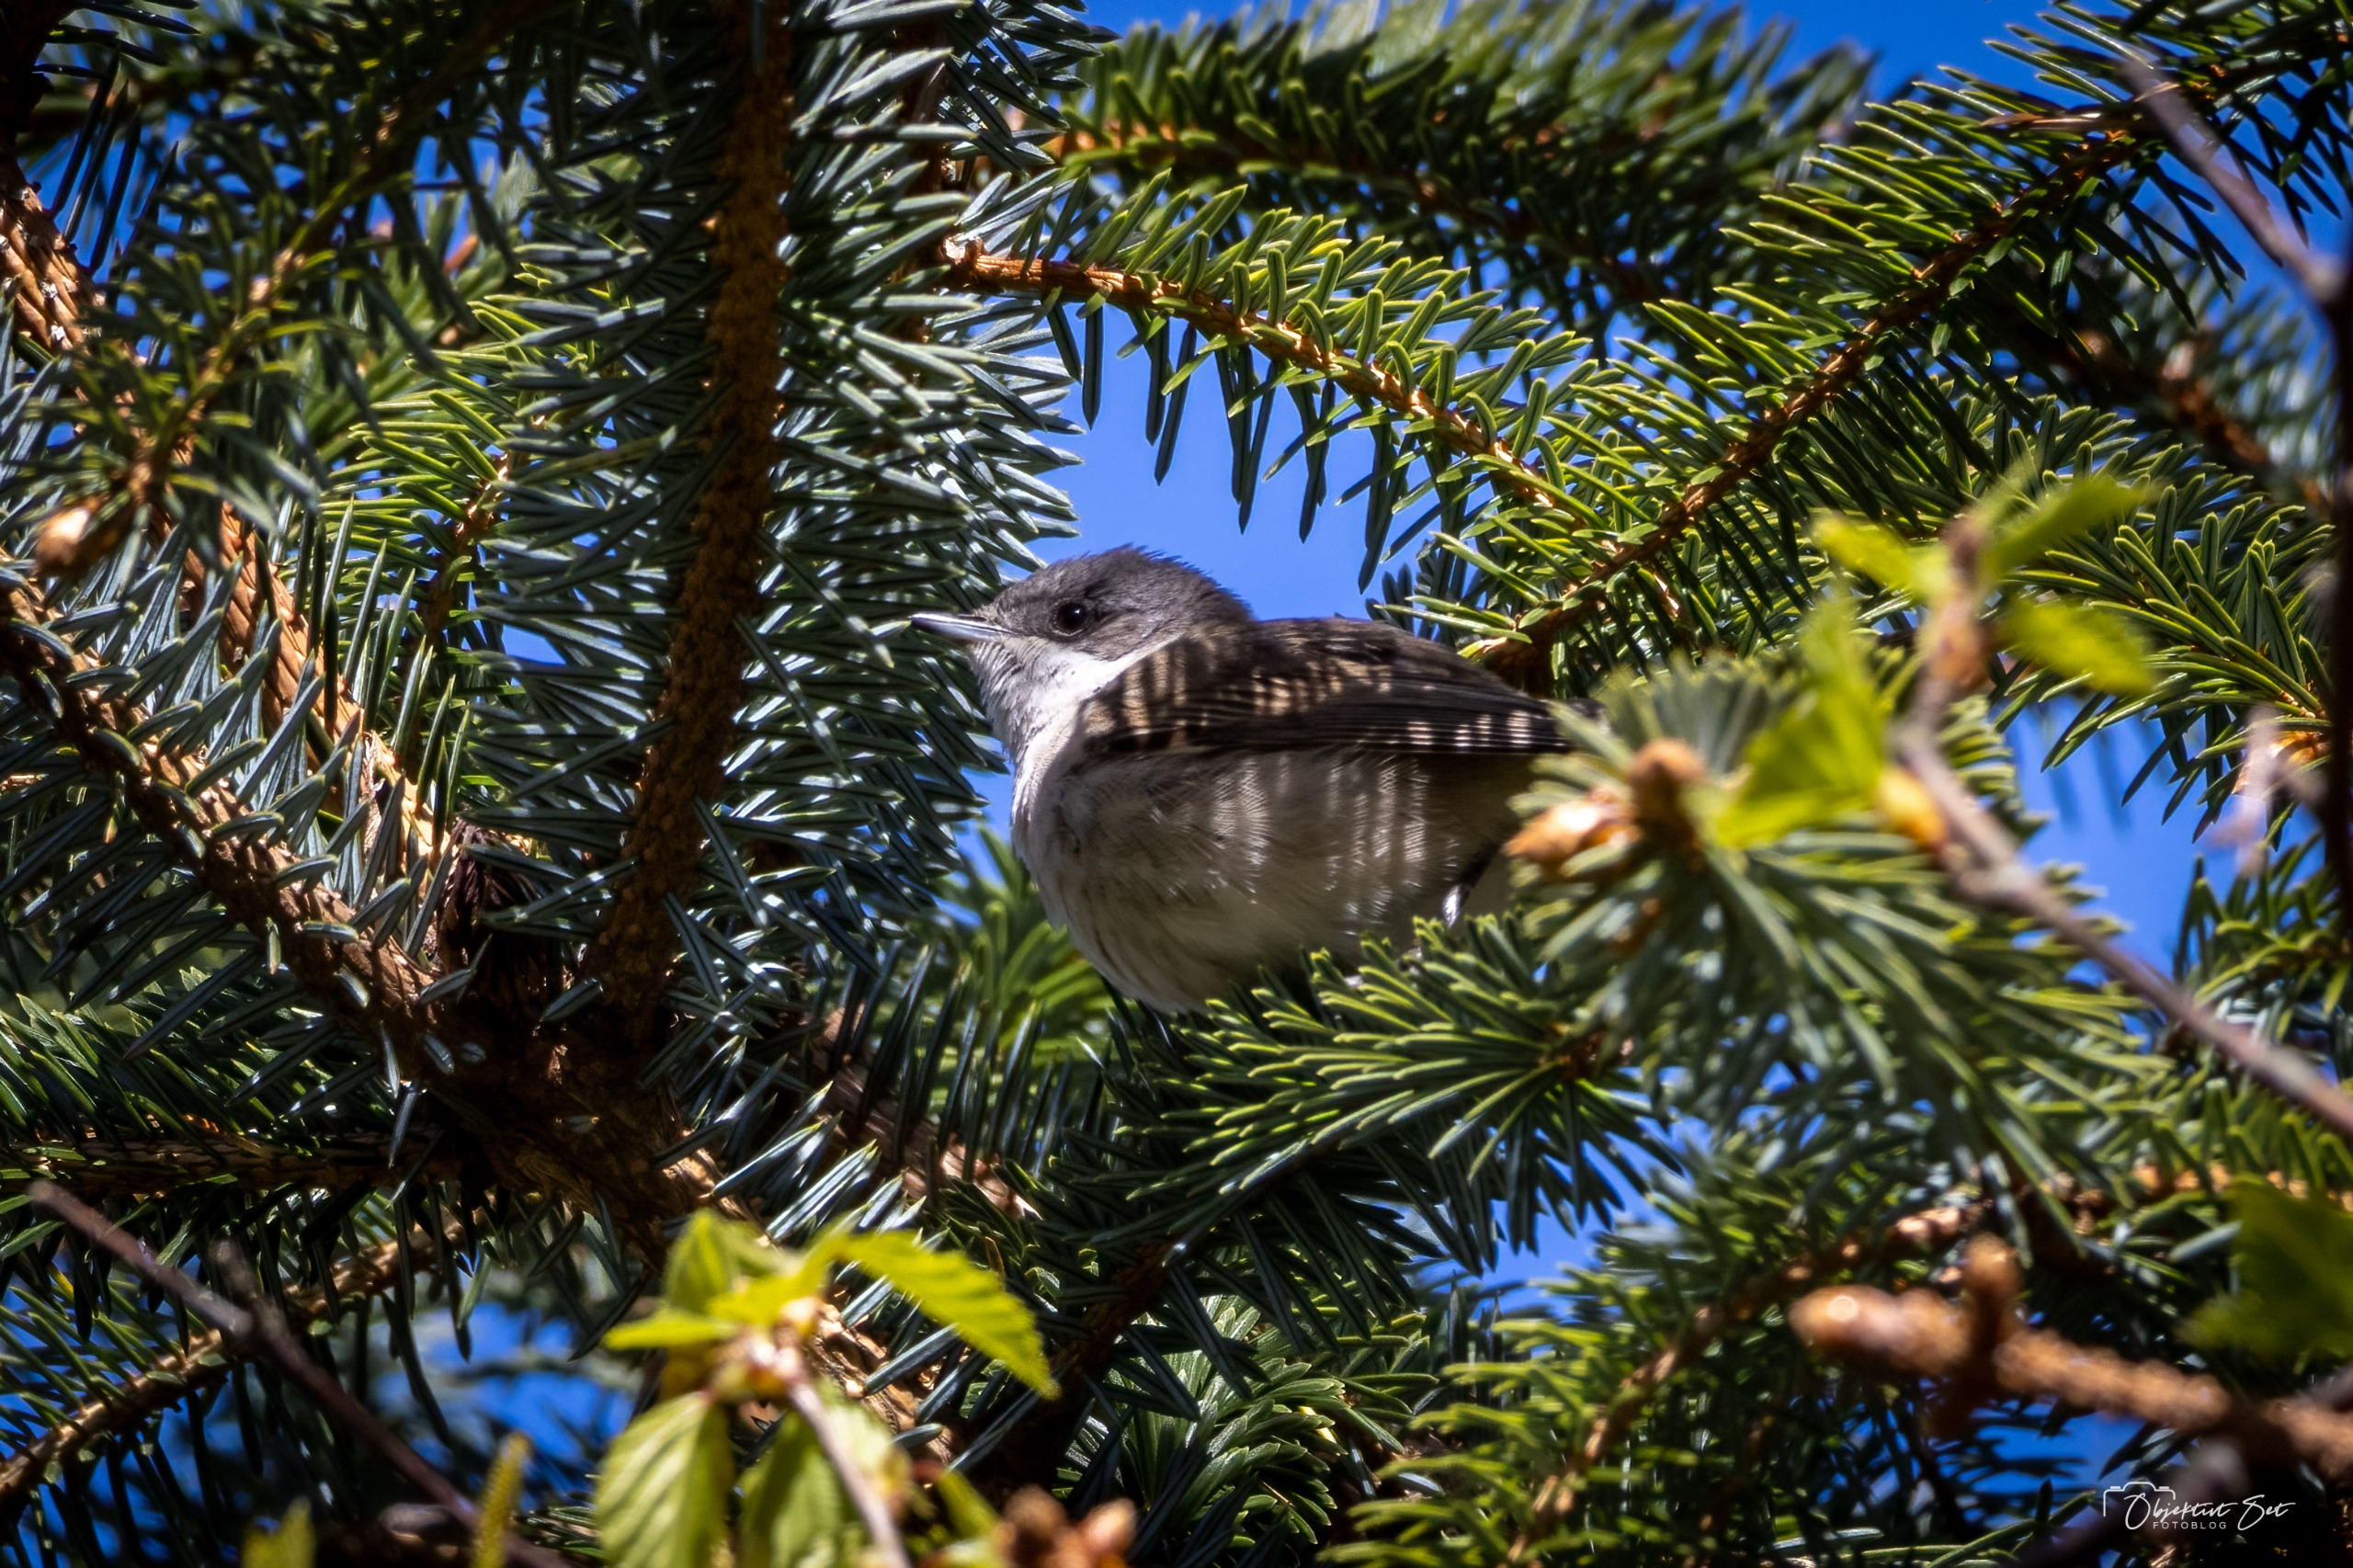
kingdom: Animalia
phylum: Chordata
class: Aves
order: Passeriformes
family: Sylviidae
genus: Sylvia
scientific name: Sylvia curruca
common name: Gærdesanger
